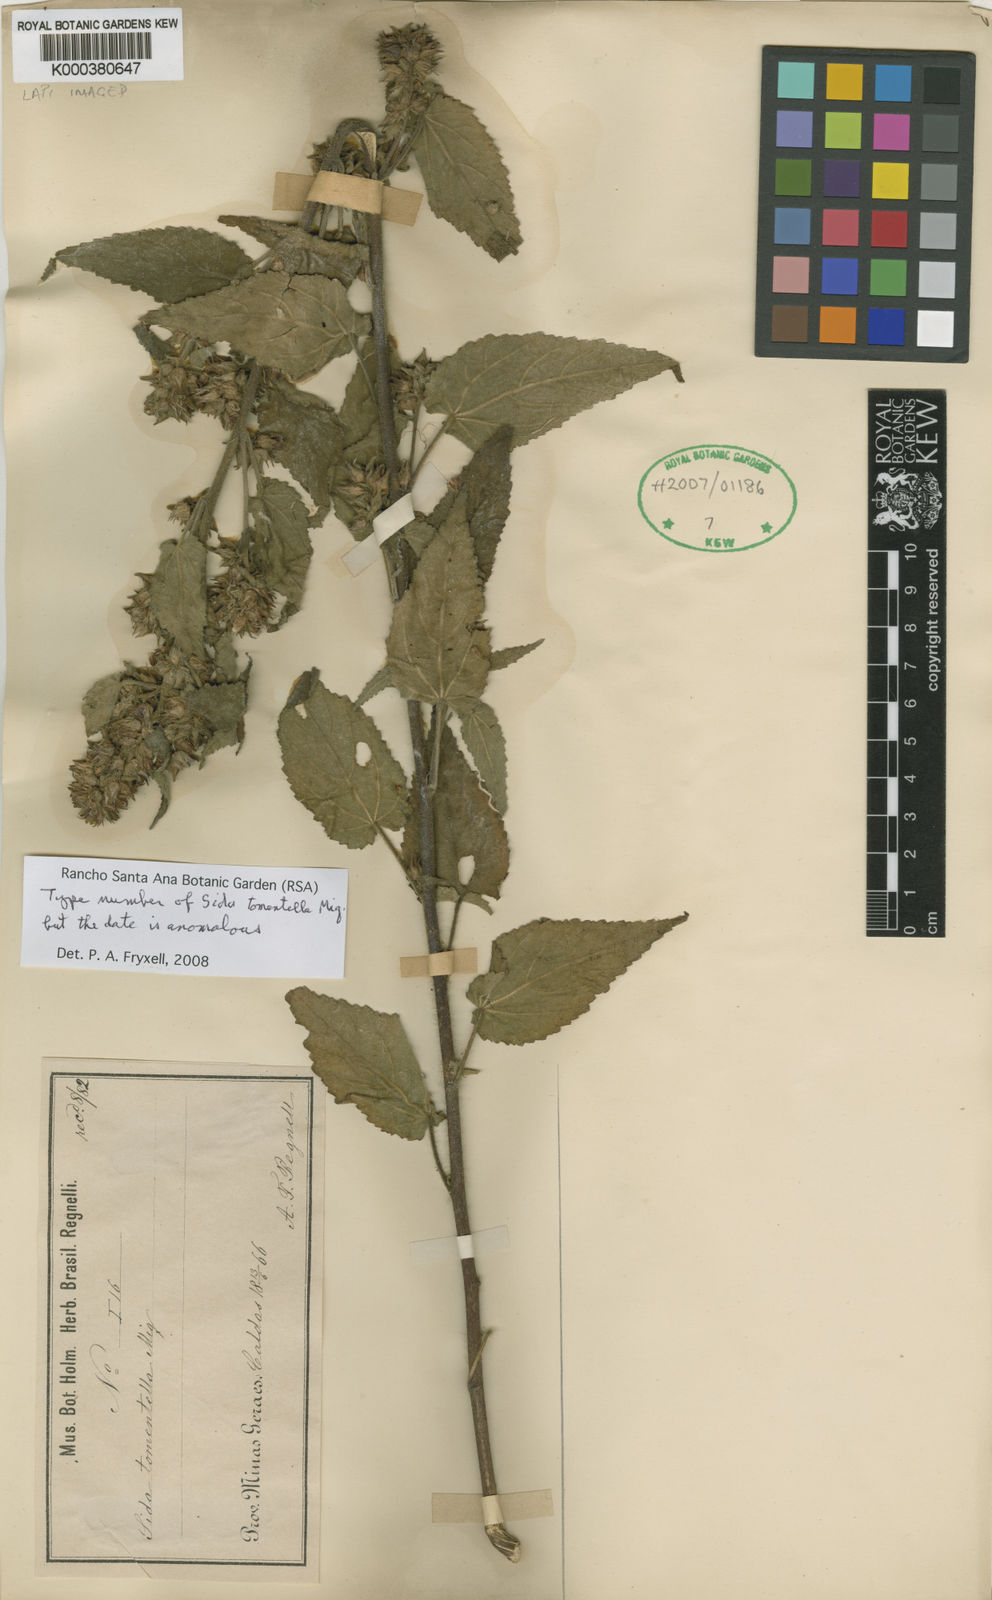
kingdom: Plantae
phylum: Tracheophyta
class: Magnoliopsida
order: Malvales
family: Malvaceae
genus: Sida
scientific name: Sida caudata
